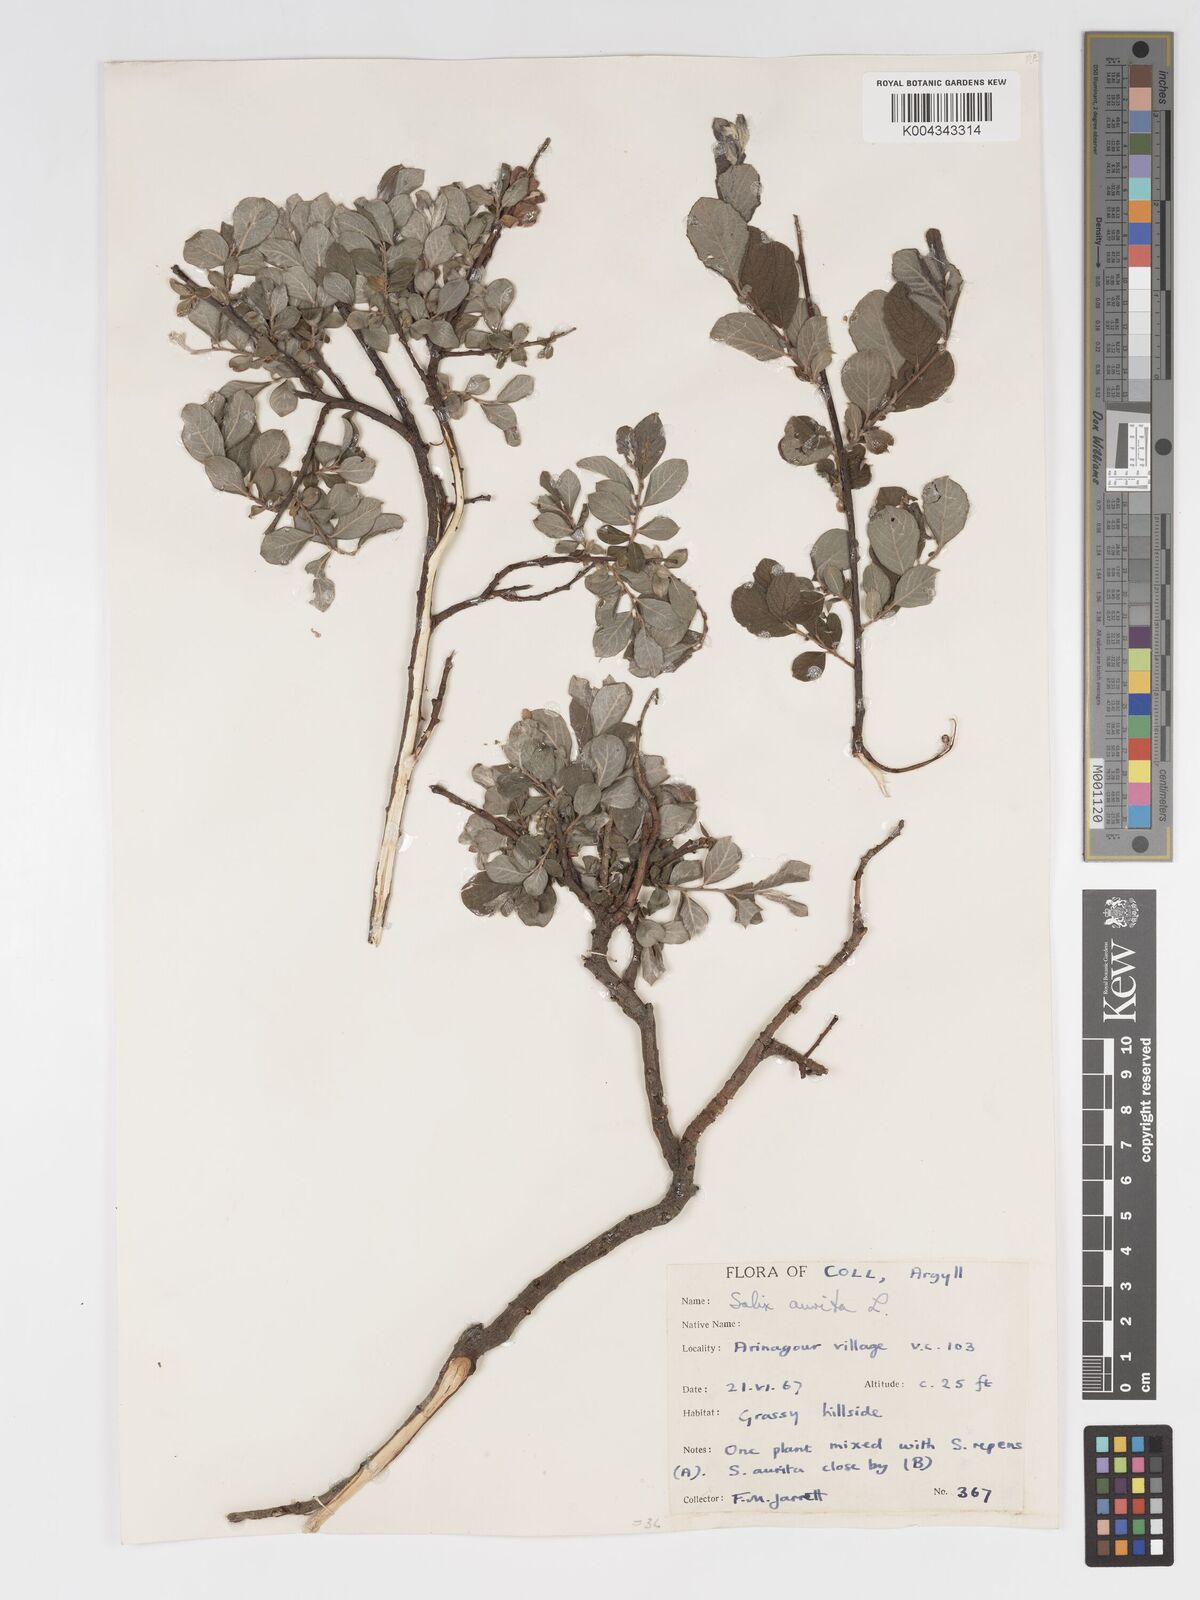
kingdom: Plantae
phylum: Tracheophyta
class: Magnoliopsida
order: Malpighiales
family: Salicaceae
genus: Salix
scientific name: Salix aurita
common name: Eared willow
